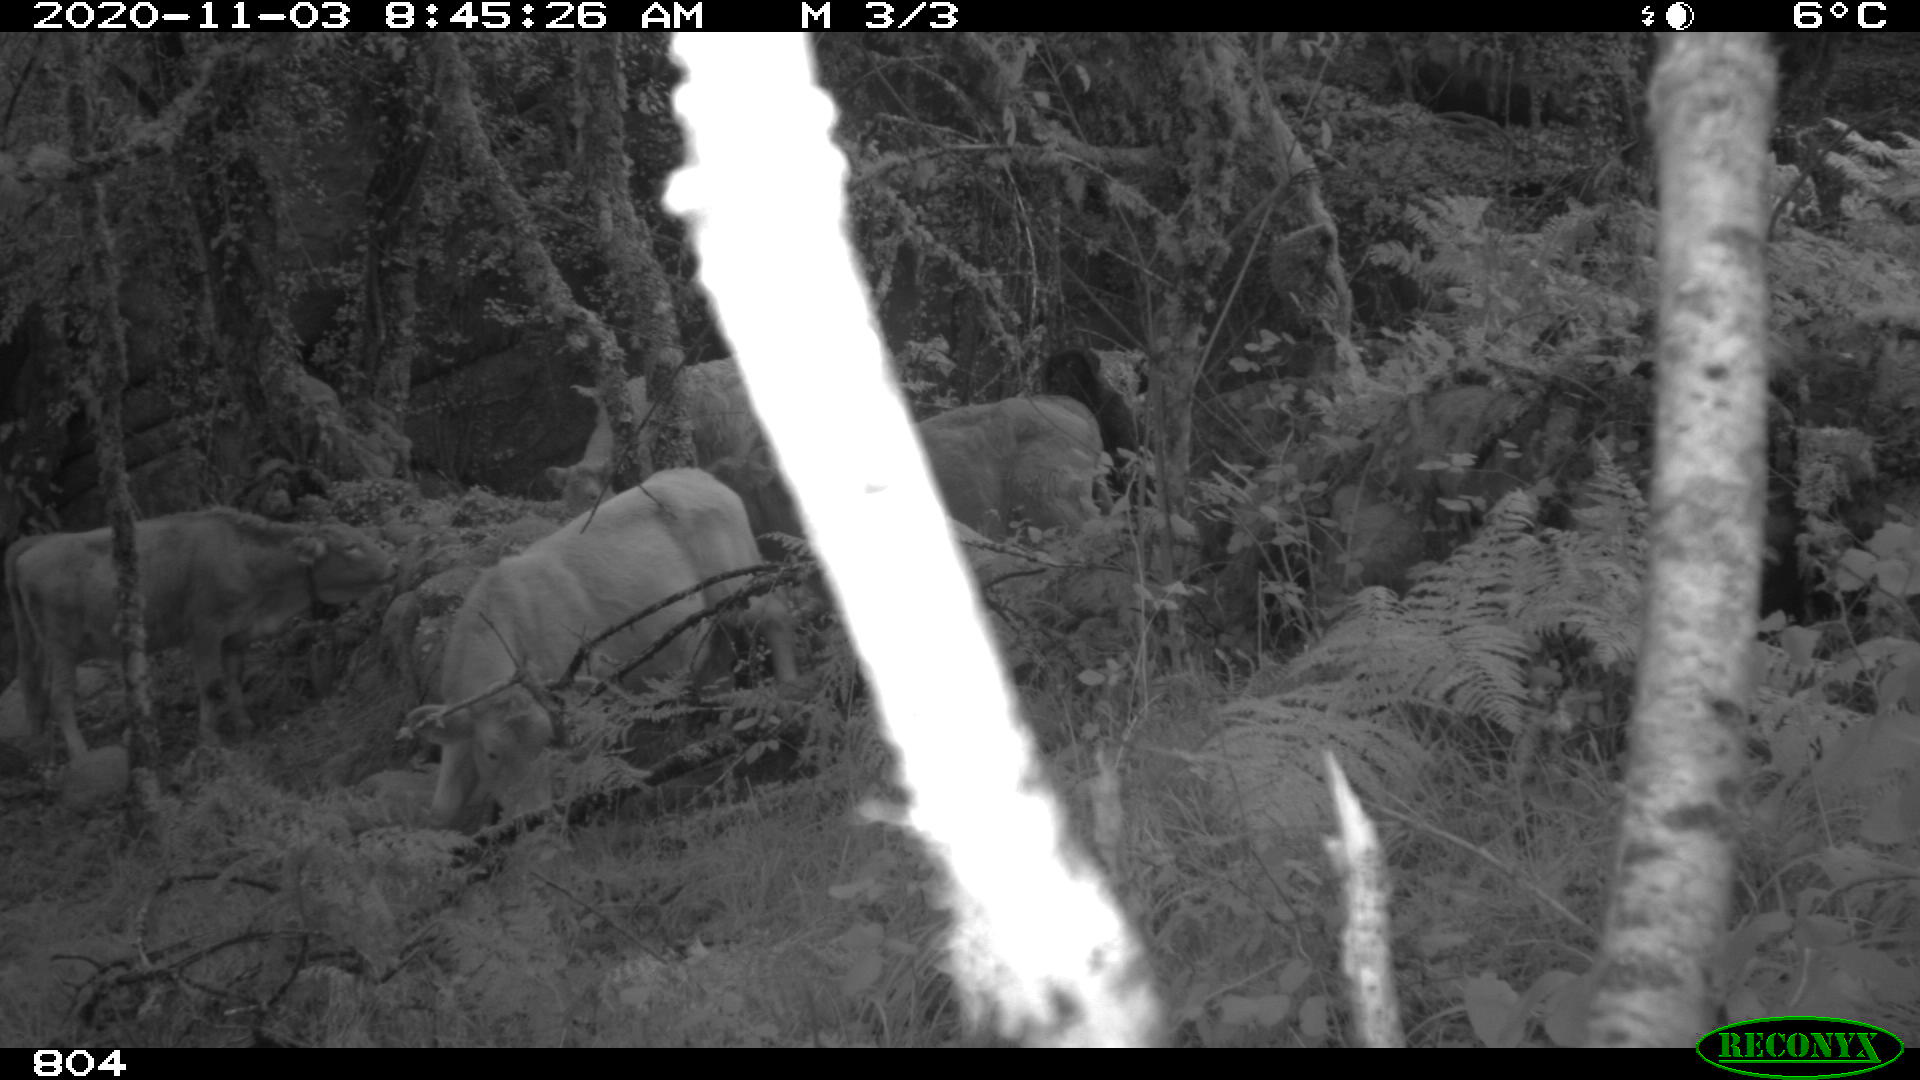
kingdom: Animalia
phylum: Chordata
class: Mammalia
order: Artiodactyla
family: Bovidae
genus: Bos
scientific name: Bos taurus
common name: Domesticated cattle
